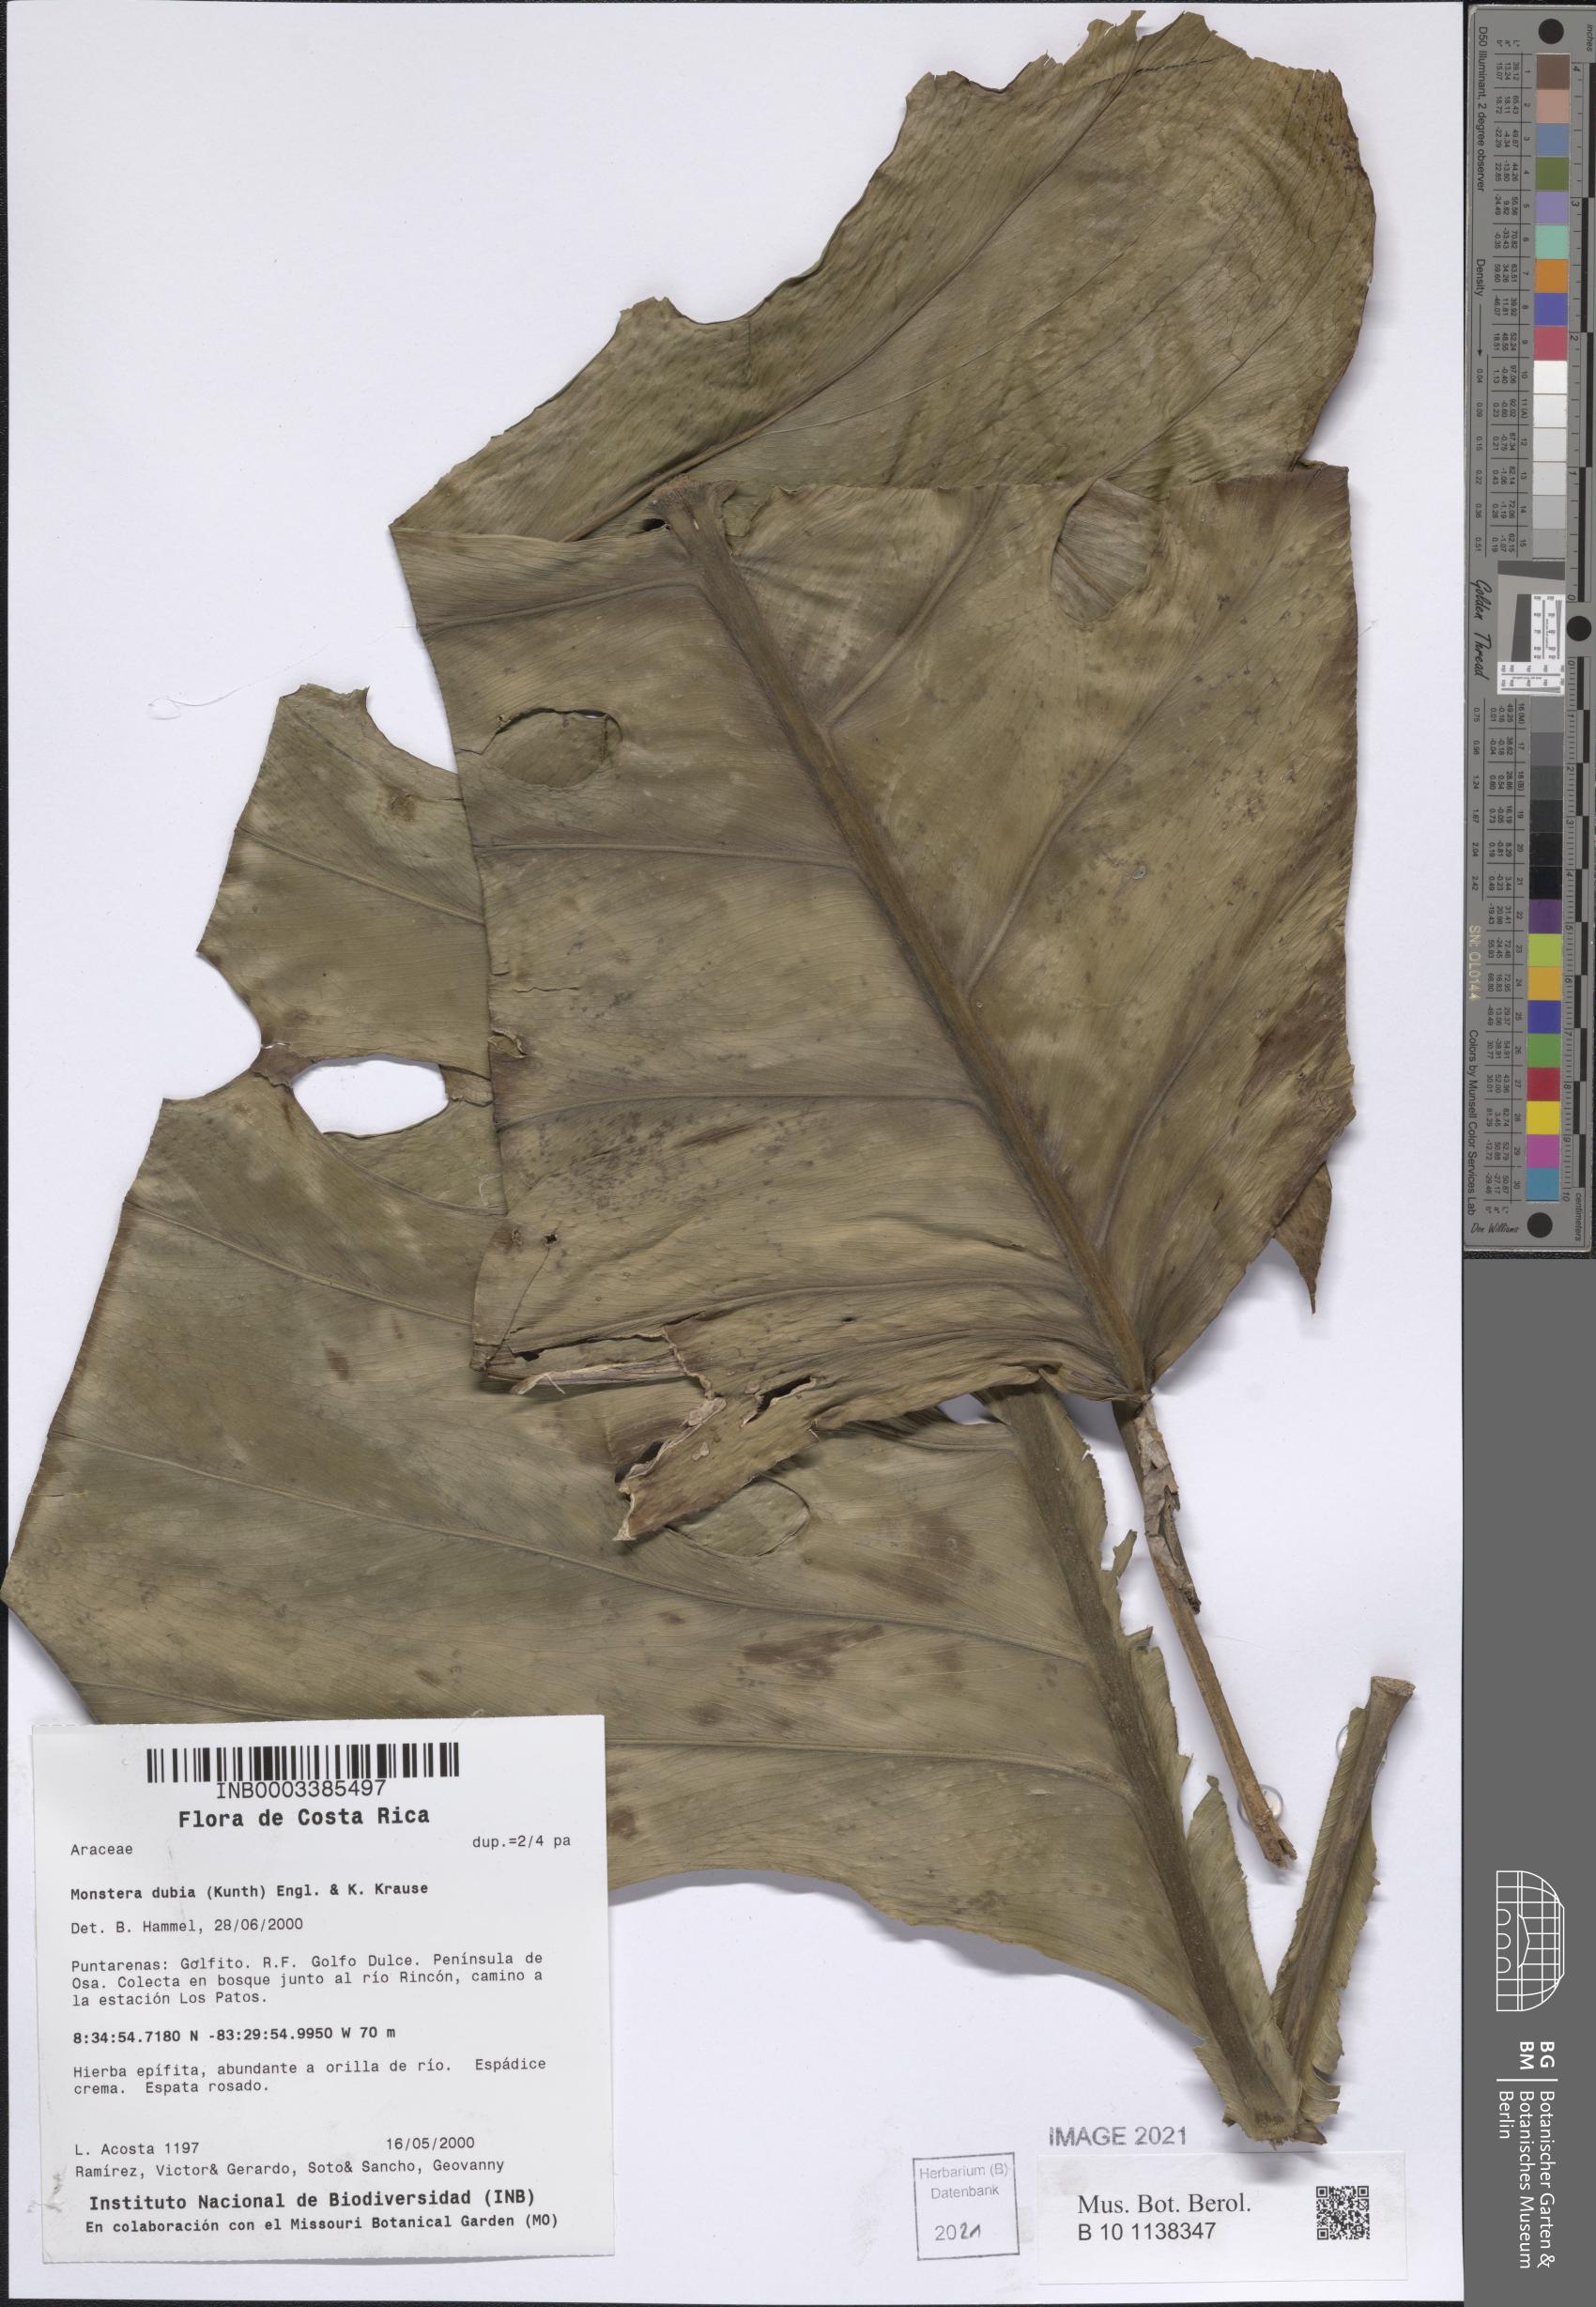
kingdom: Plantae
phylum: Tracheophyta
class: Liliopsida
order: Alismatales
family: Araceae
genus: Monstera
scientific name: Monstera dubia
